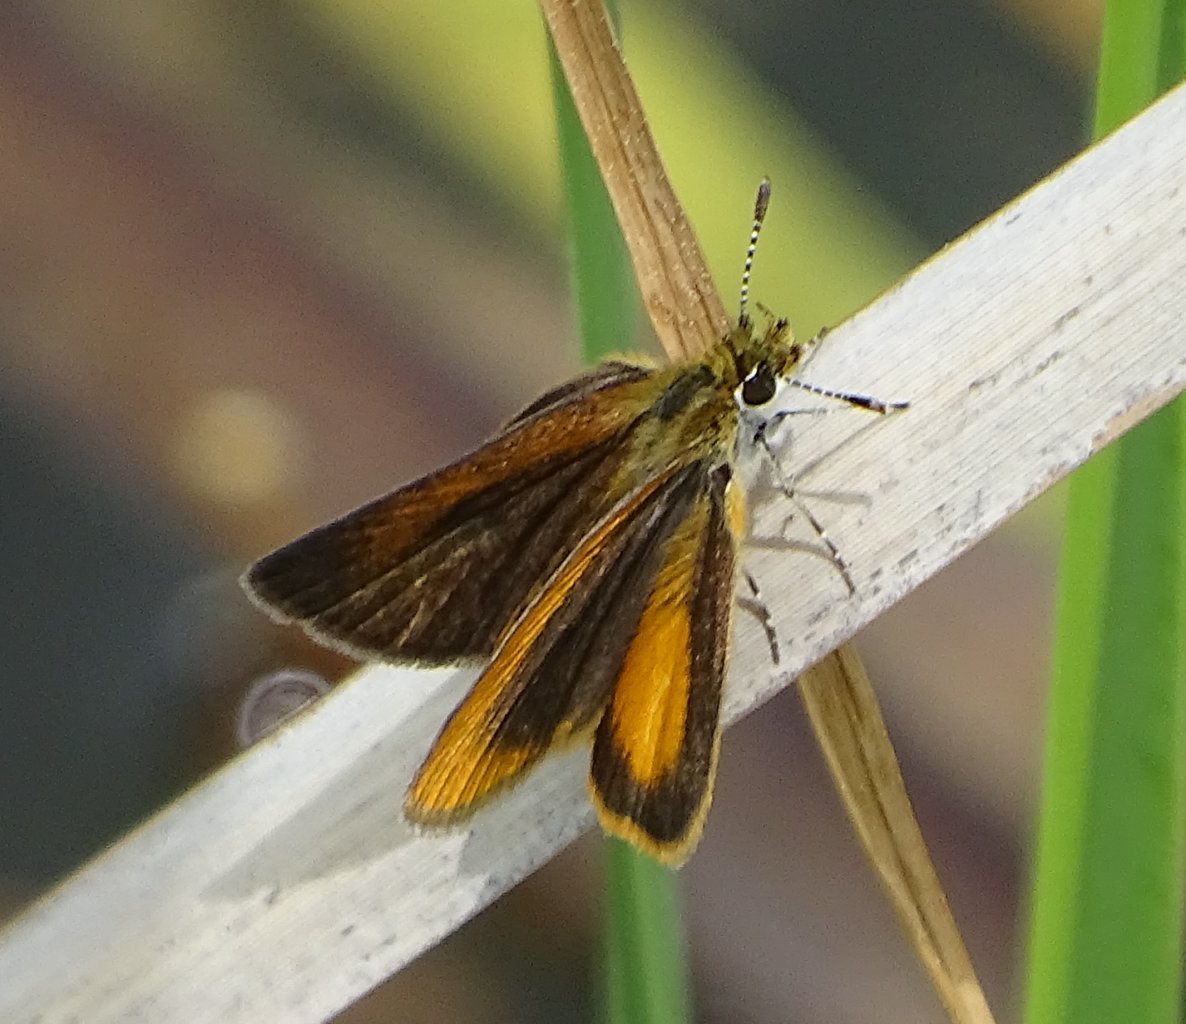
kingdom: Animalia
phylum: Arthropoda
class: Insecta
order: Lepidoptera
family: Hesperiidae
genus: Ancyloxypha
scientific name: Ancyloxypha numitor
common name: Least Skipper
